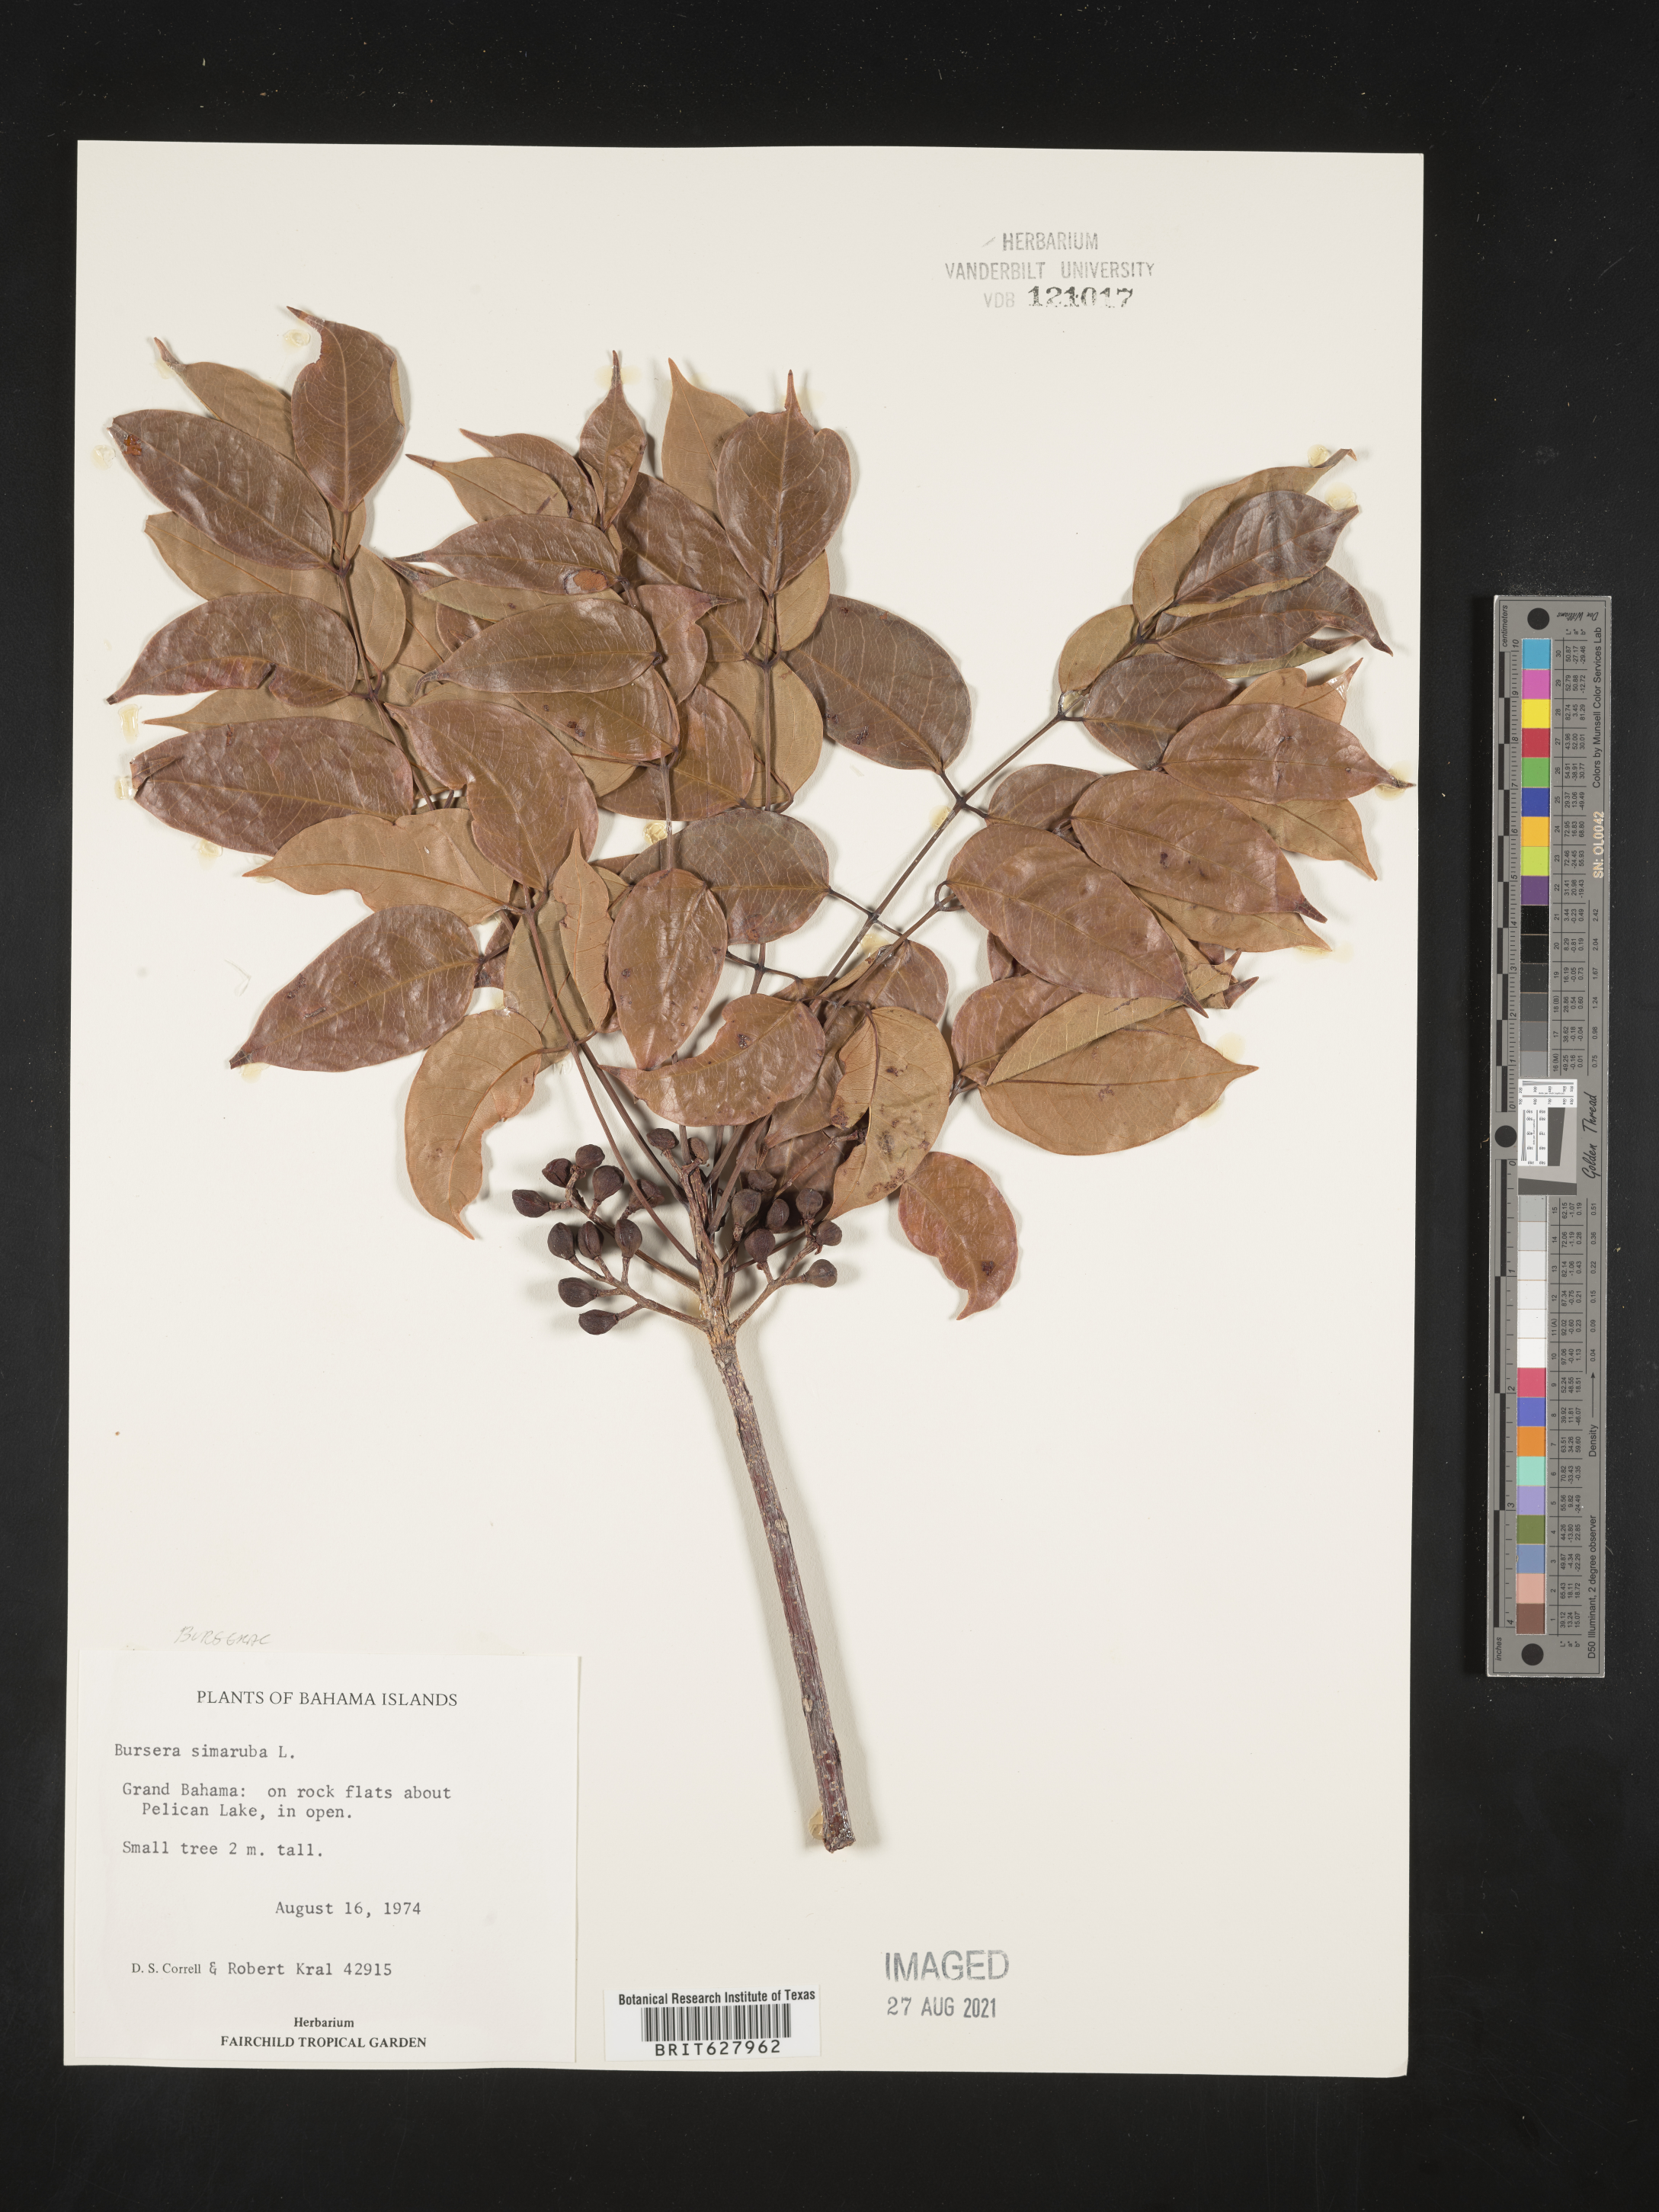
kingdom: Plantae
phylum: Tracheophyta
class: Magnoliopsida
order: Sapindales
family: Burseraceae
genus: Bursera
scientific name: Bursera simaruba
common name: Turpentine tree
